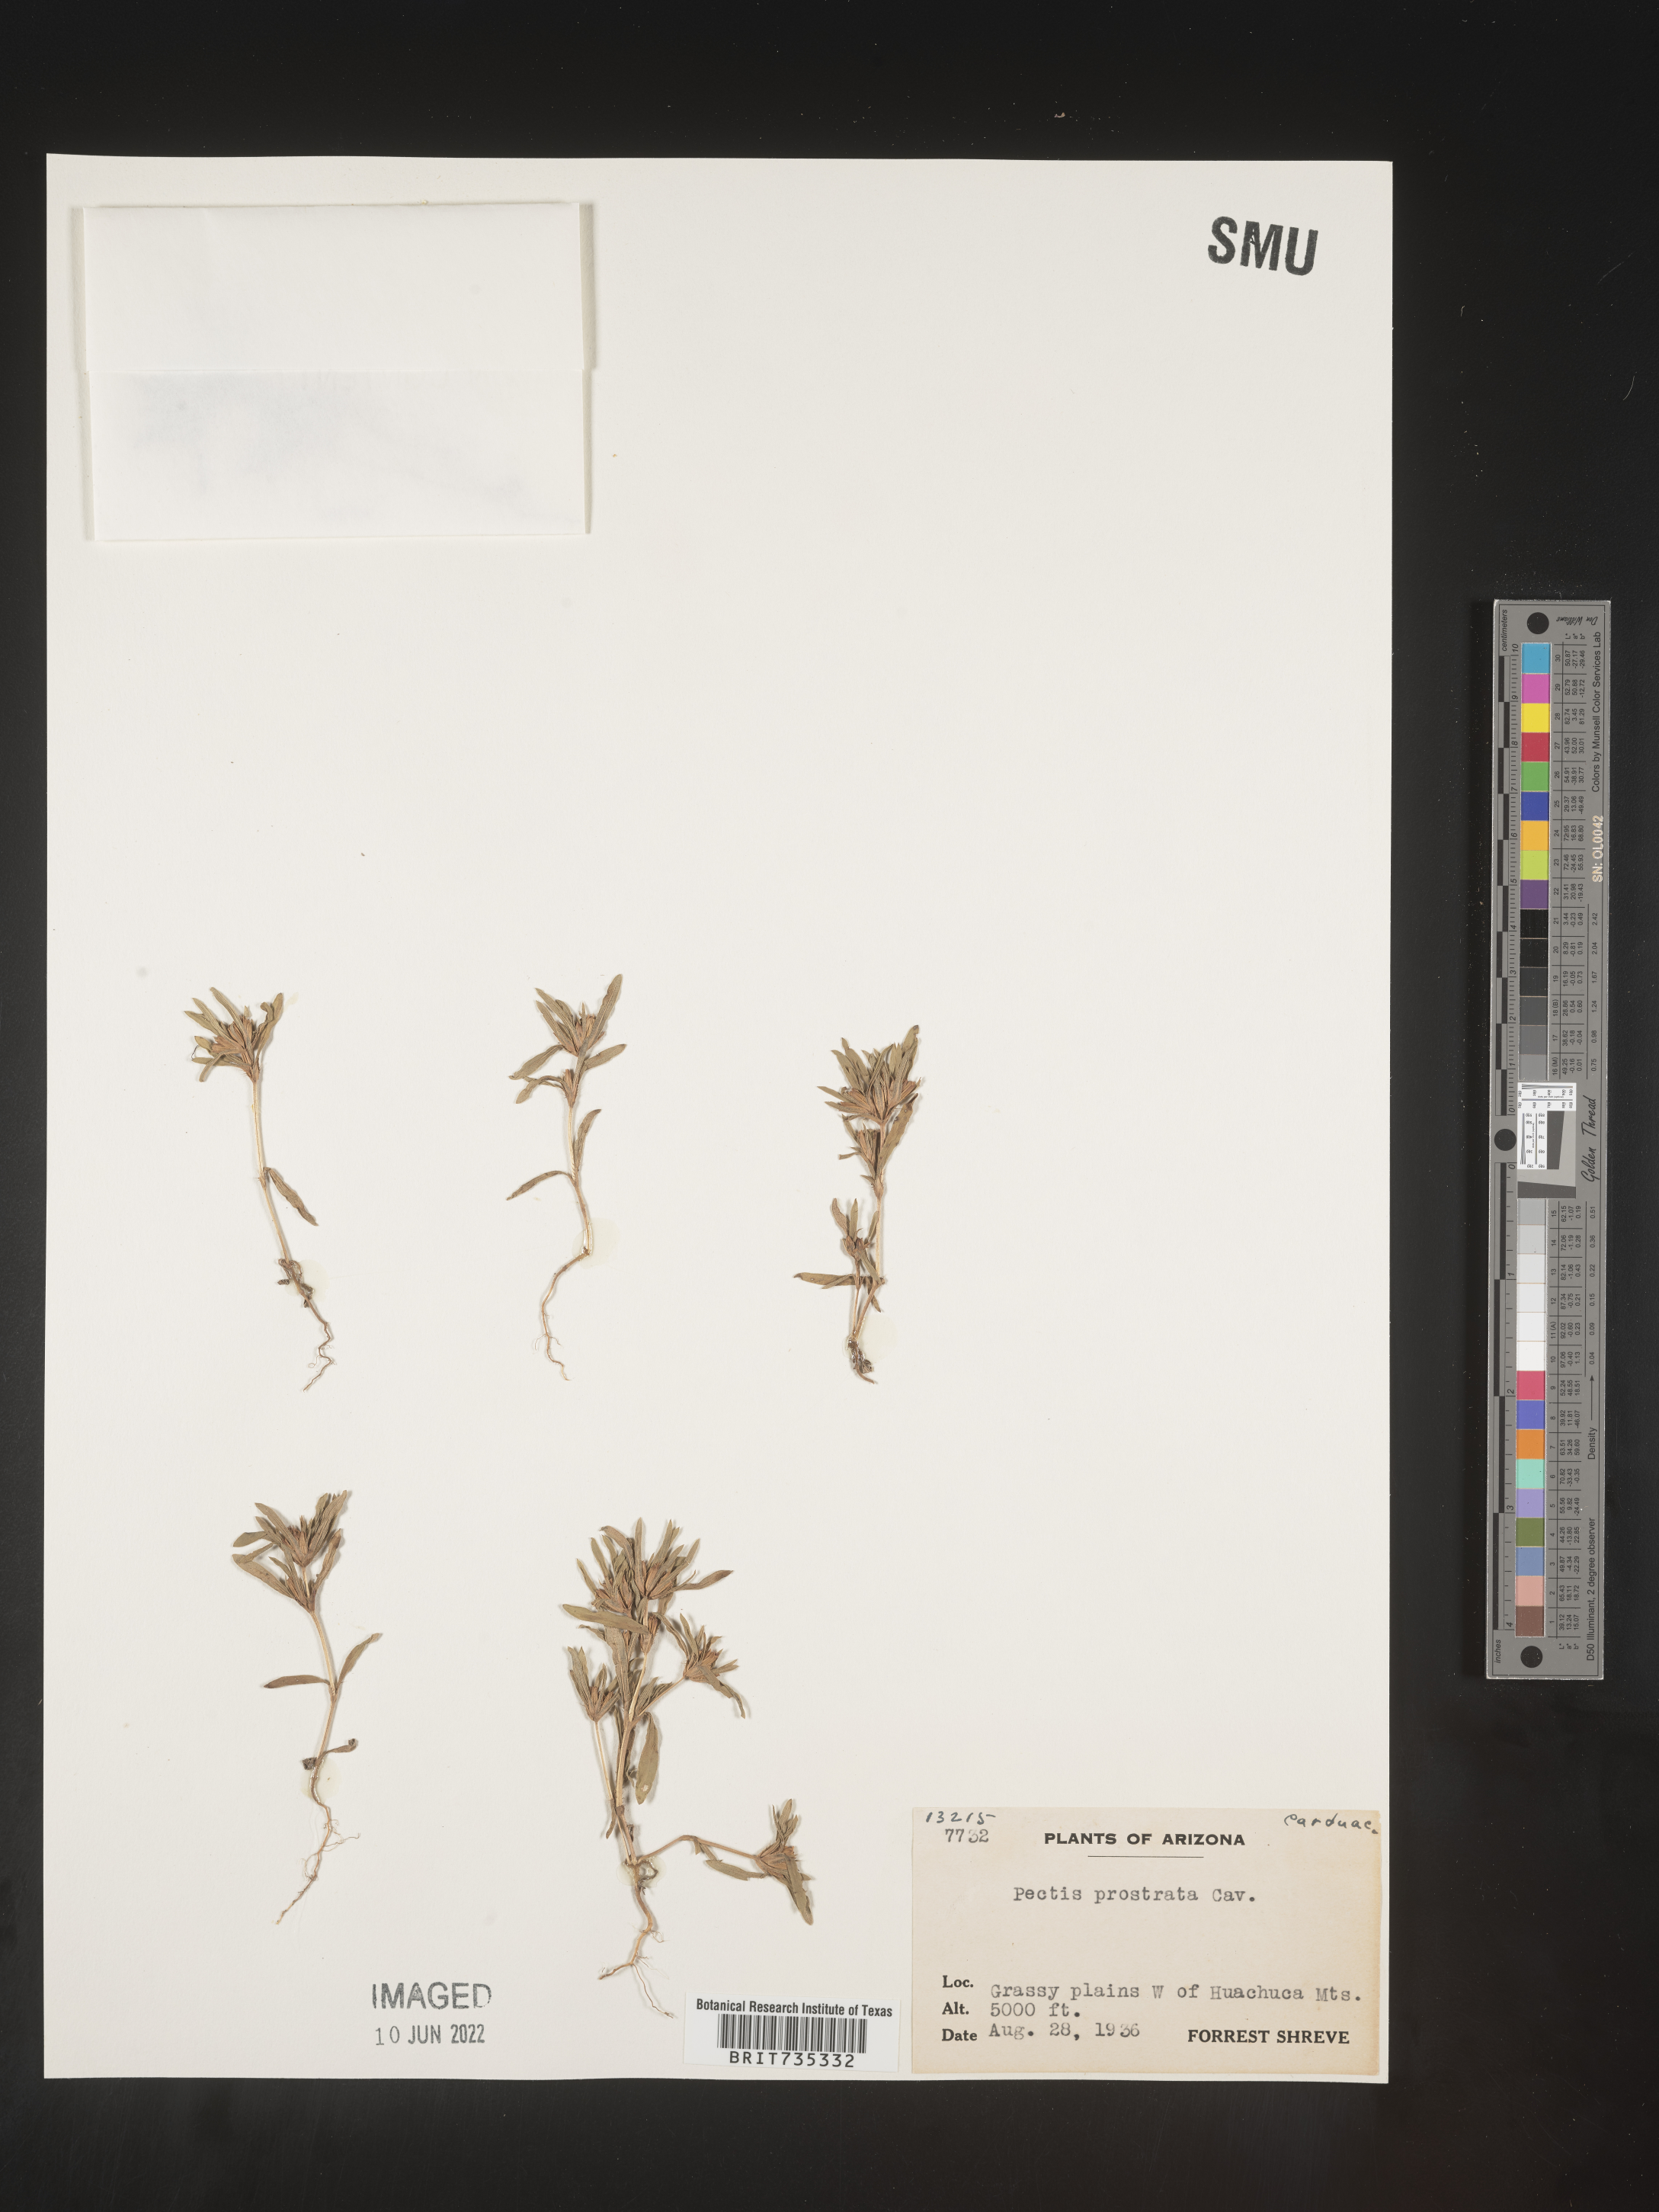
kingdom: Plantae
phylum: Tracheophyta
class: Magnoliopsida
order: Asterales
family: Asteraceae
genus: Pectis
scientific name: Pectis prostrata
